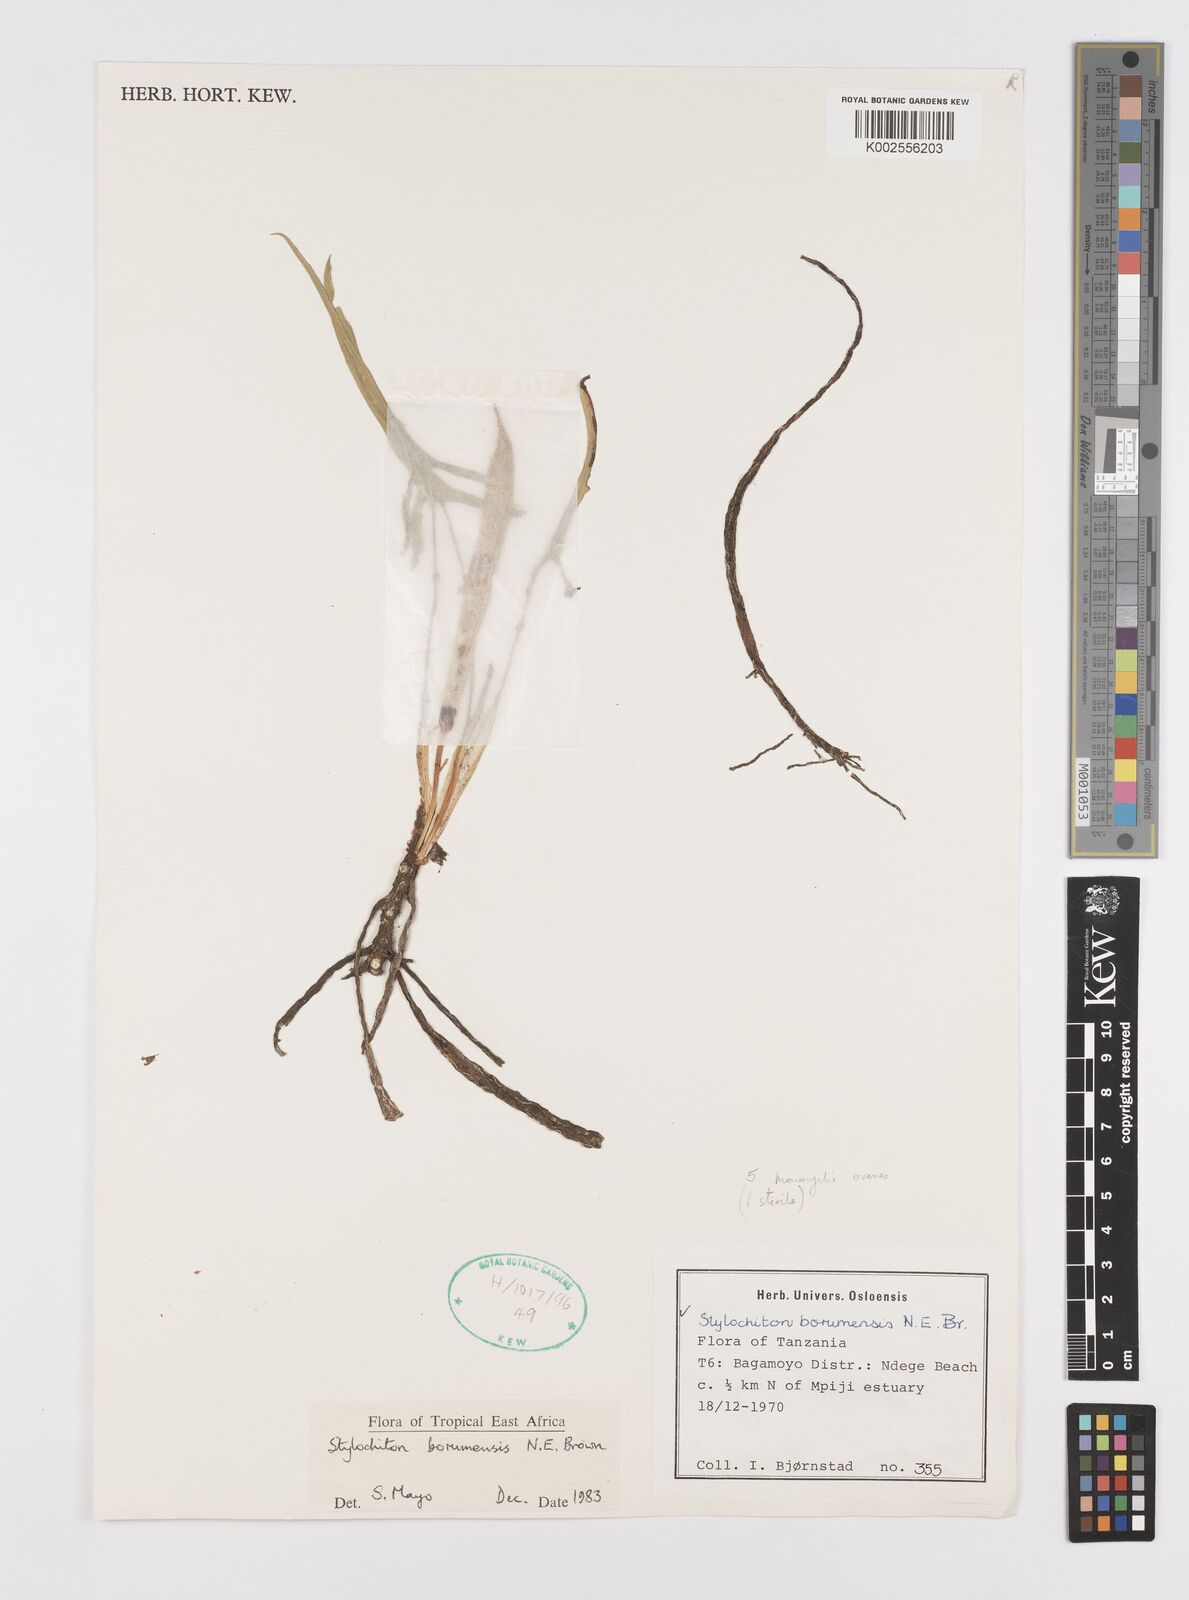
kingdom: Plantae
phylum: Tracheophyta
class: Liliopsida
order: Alismatales
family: Araceae
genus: Stylochaeton
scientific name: Stylochaeton borumense
